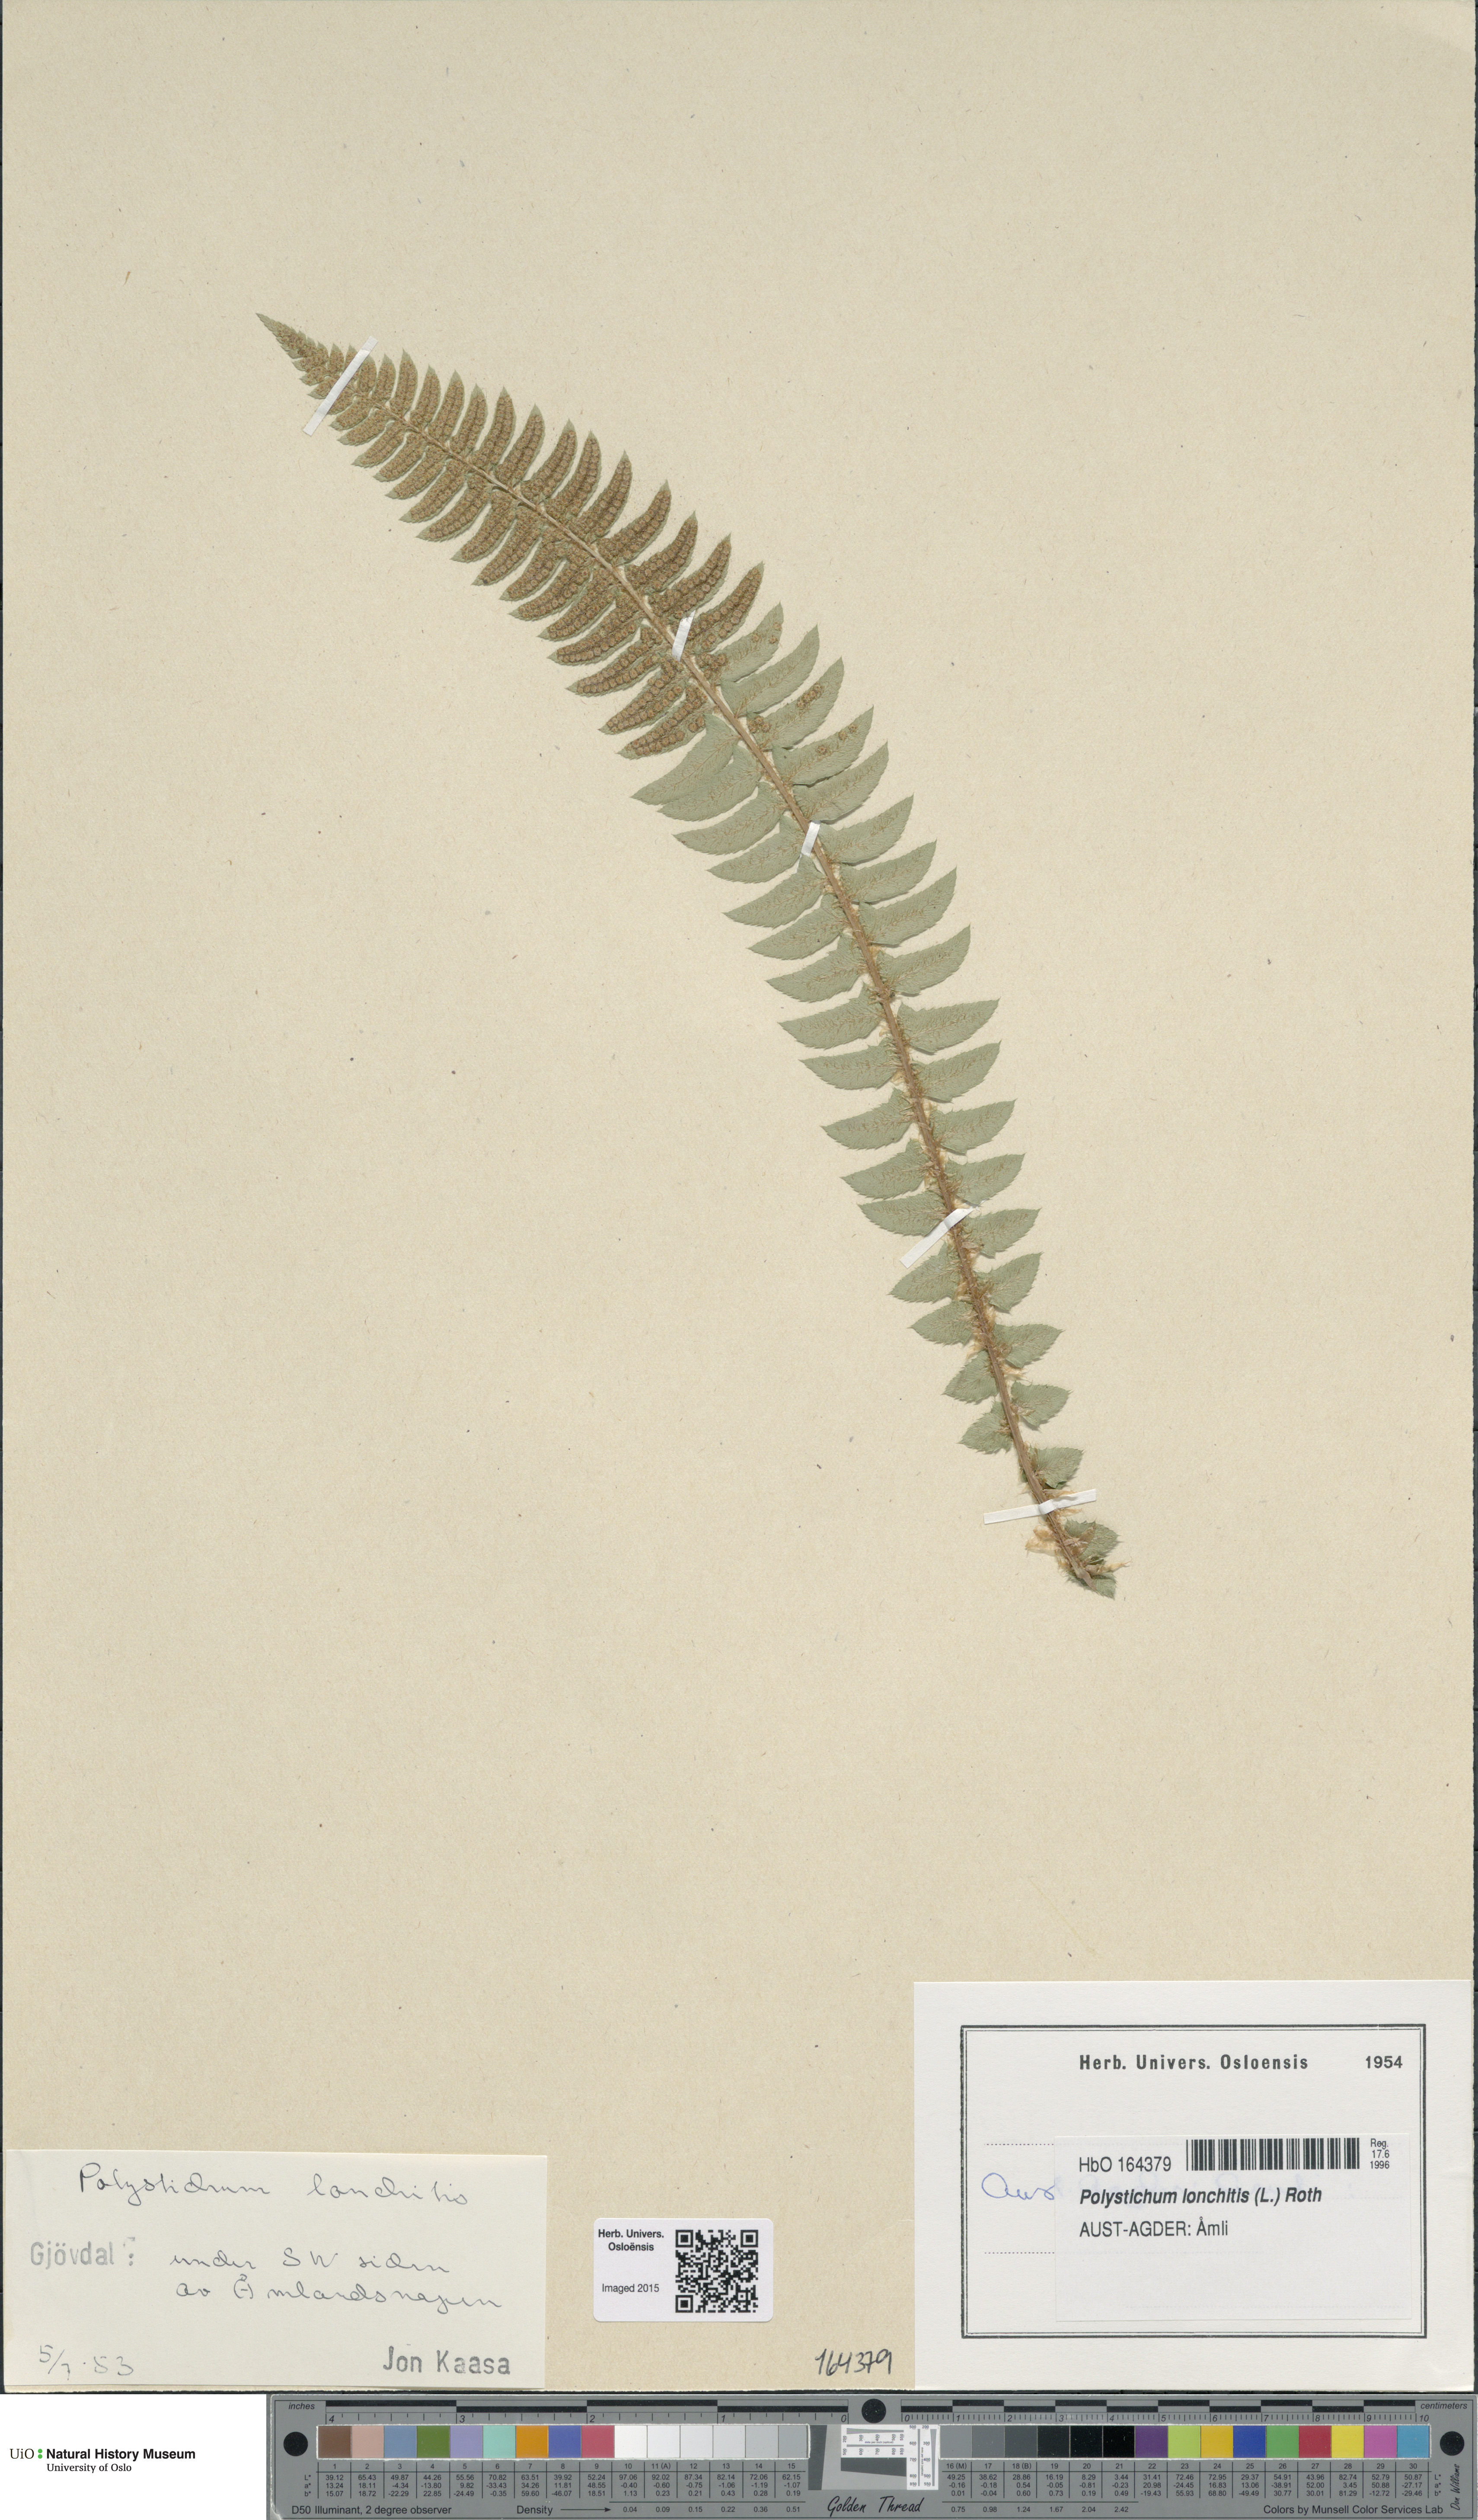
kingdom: Plantae
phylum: Tracheophyta
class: Polypodiopsida
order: Polypodiales
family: Dryopteridaceae
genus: Polystichum
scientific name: Polystichum lonchitis
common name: Holly fern
